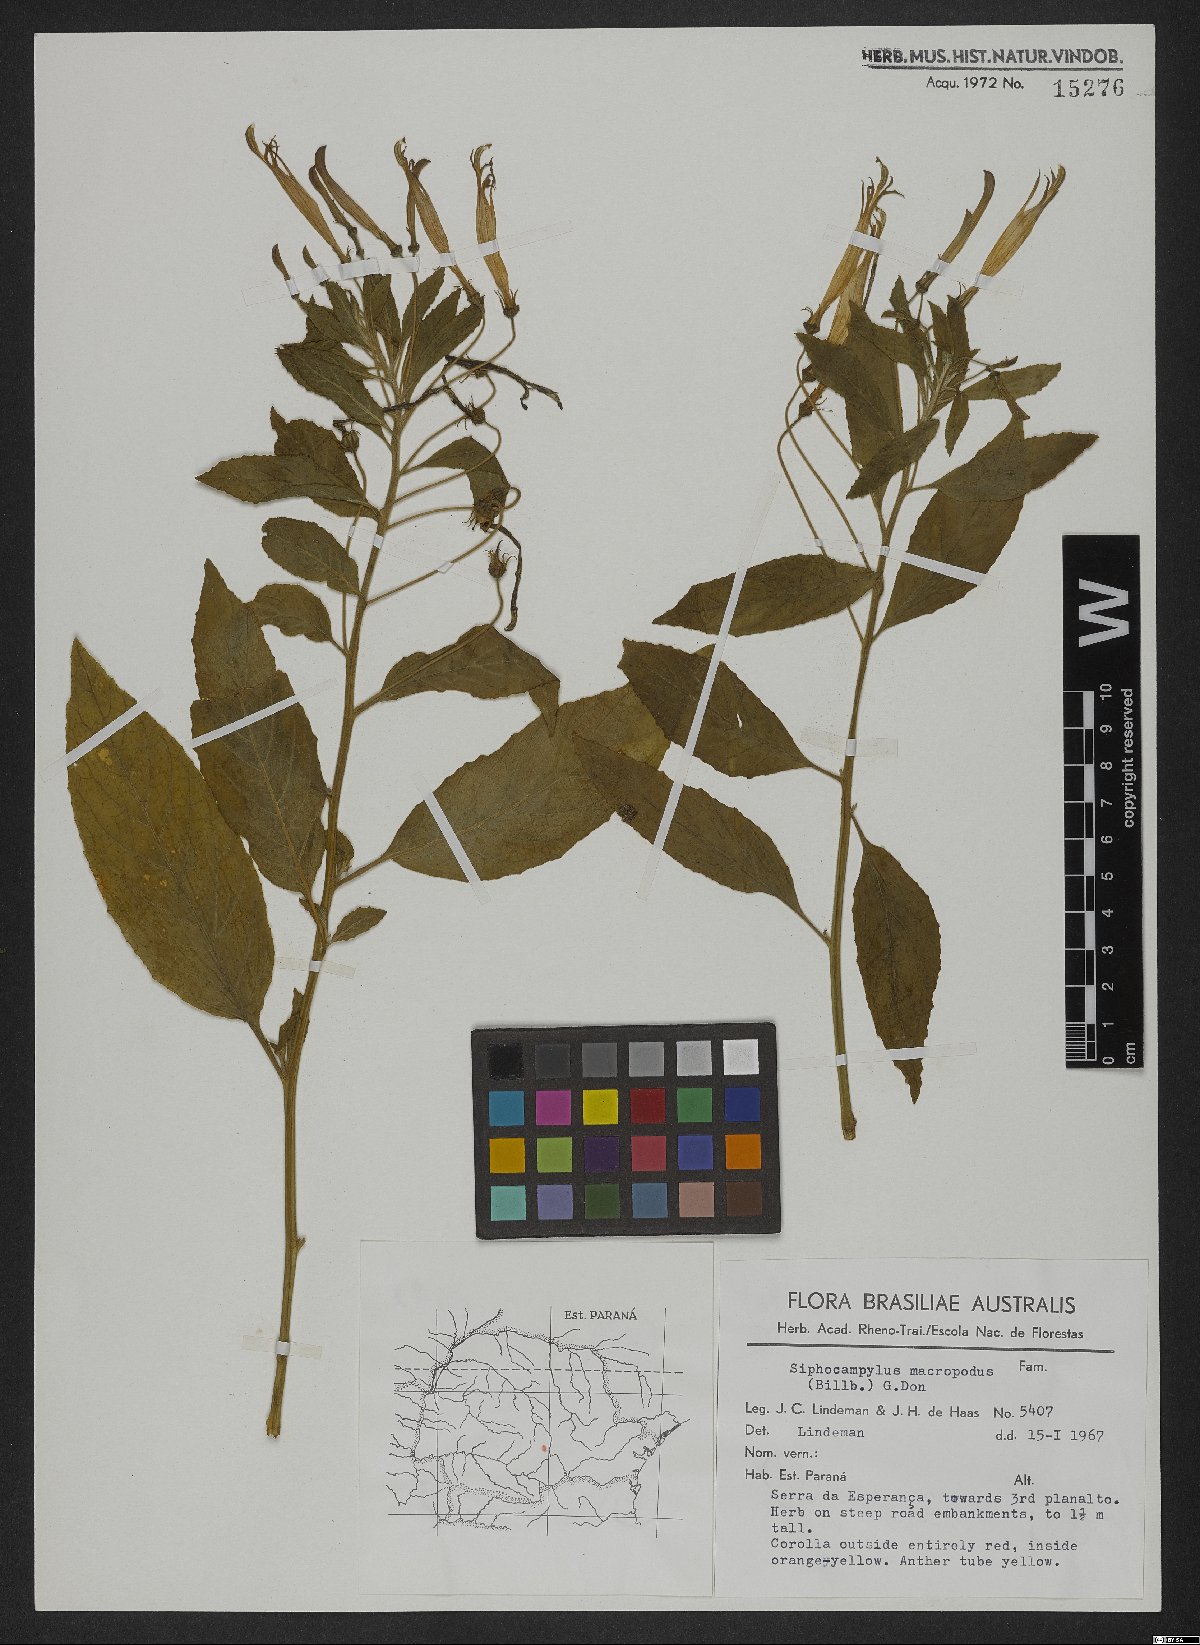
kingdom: Plantae
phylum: Tracheophyta
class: Magnoliopsida
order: Asterales
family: Campanulaceae
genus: Siphocampylus
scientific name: Siphocampylus macropodus
